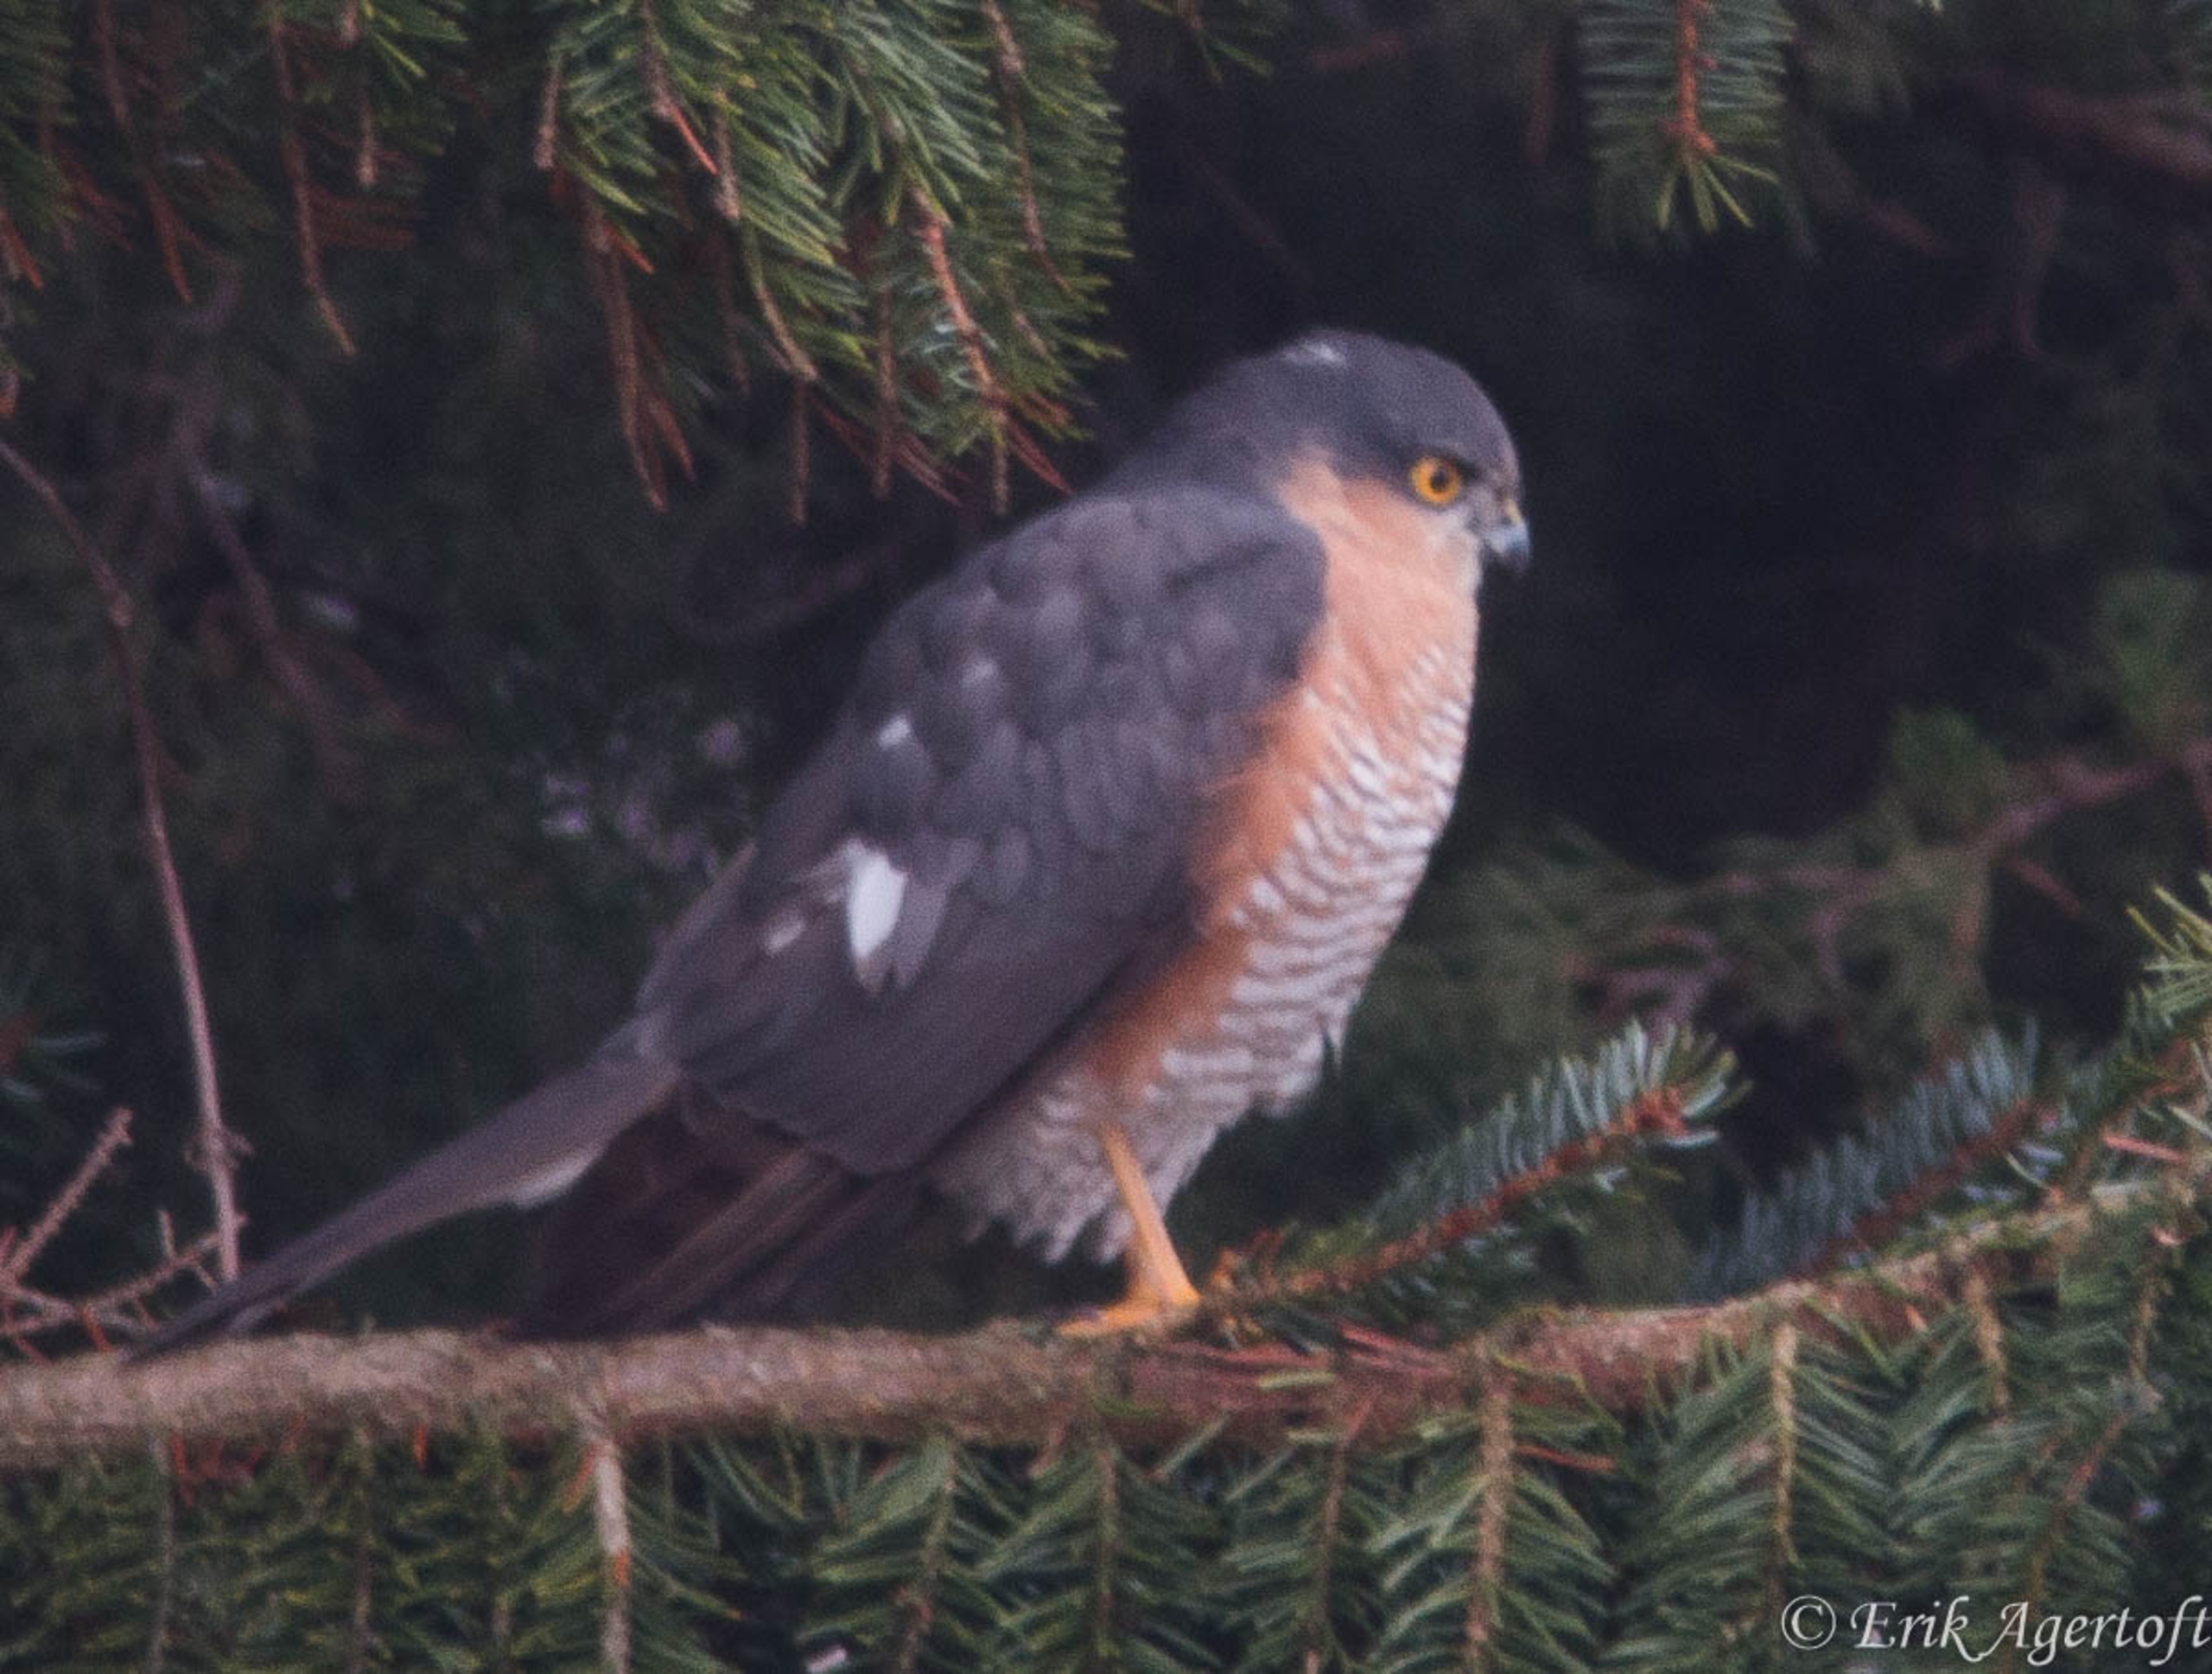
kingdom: Animalia
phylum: Chordata
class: Aves
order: Accipitriformes
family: Accipitridae
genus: Accipiter
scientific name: Accipiter nisus
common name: Spurvehøg
